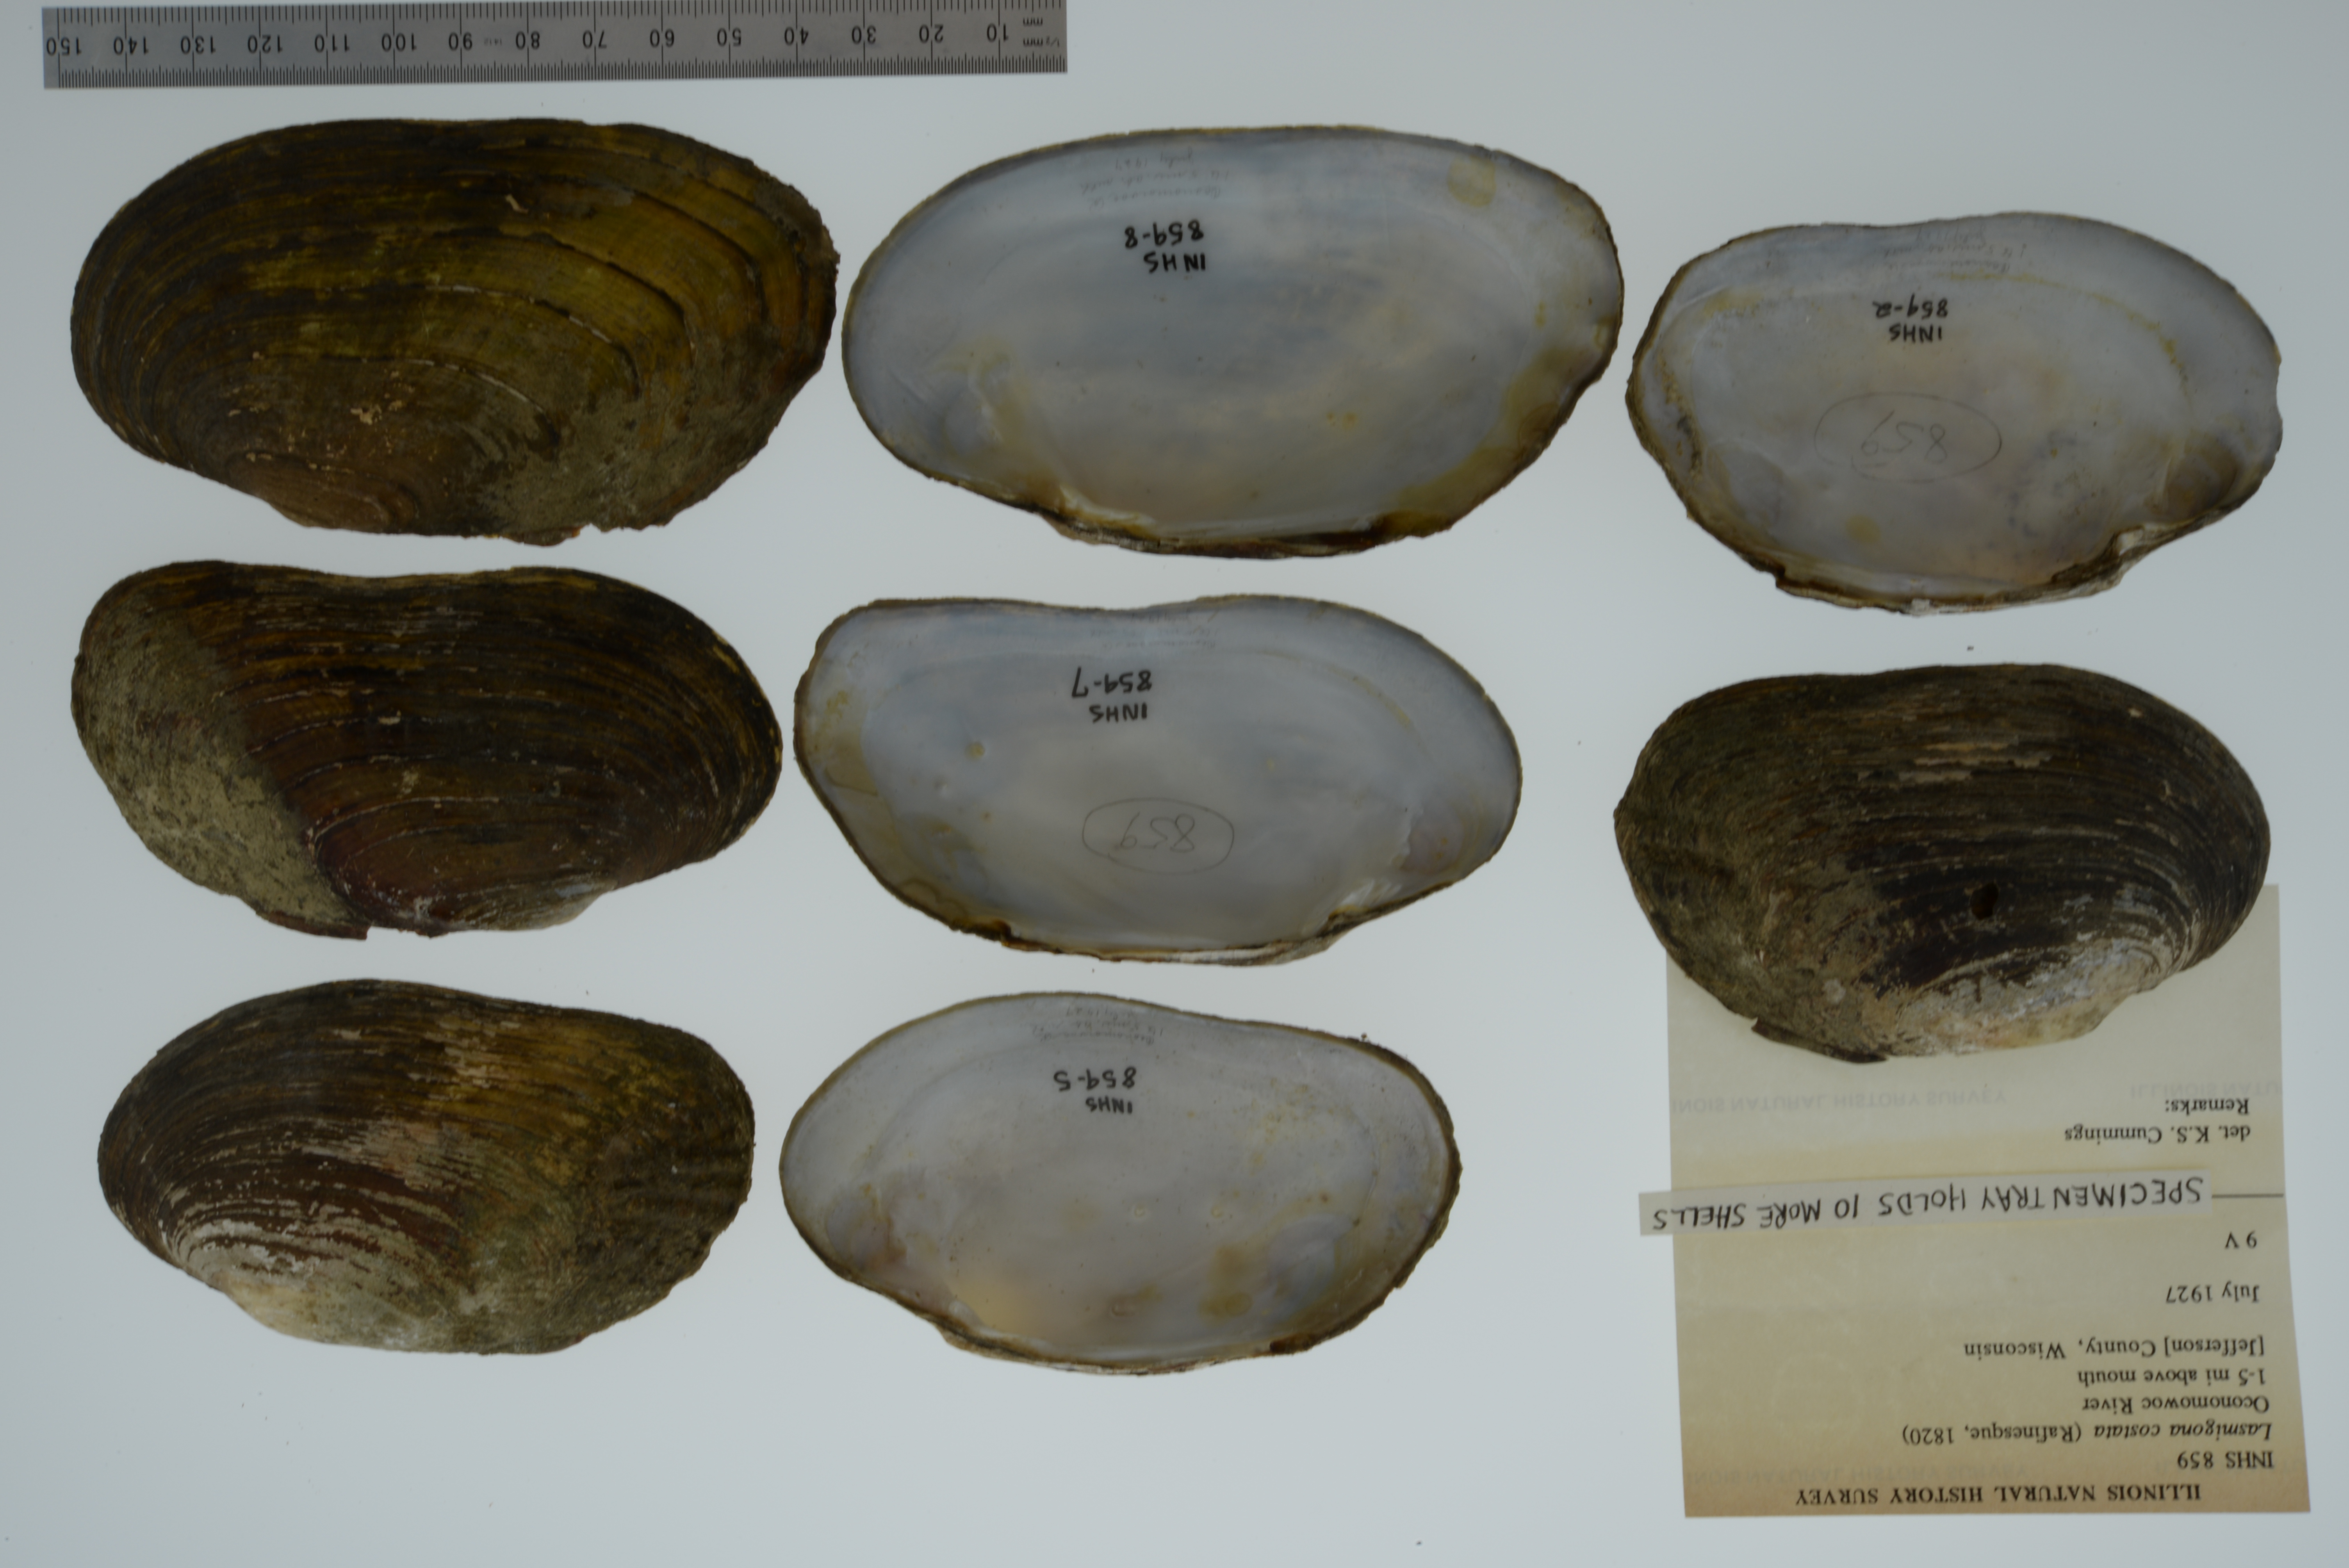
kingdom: Animalia
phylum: Mollusca
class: Bivalvia
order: Unionida
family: Unionidae
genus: Lasmigona
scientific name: Lasmigona costata
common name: Flutedshell
